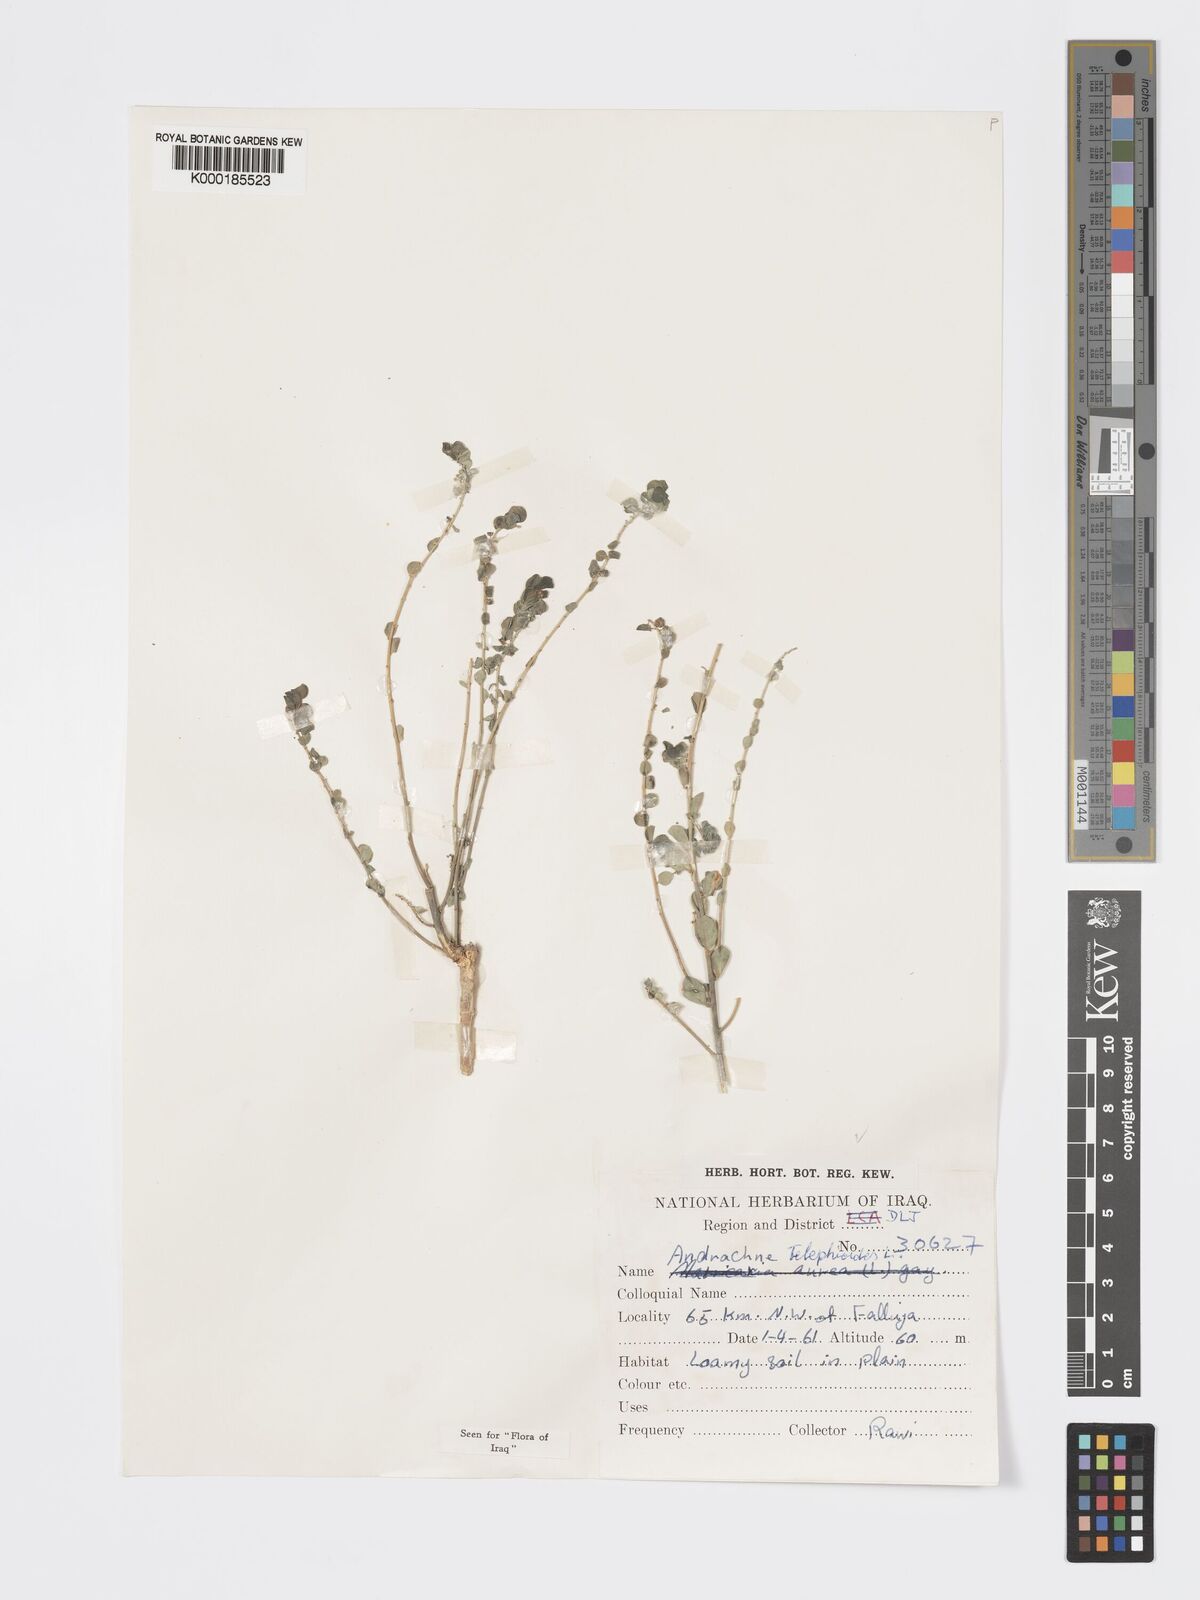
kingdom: Plantae
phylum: Tracheophyta
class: Magnoliopsida
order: Malpighiales
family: Phyllanthaceae
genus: Andrachne
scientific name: Andrachne telephioides
